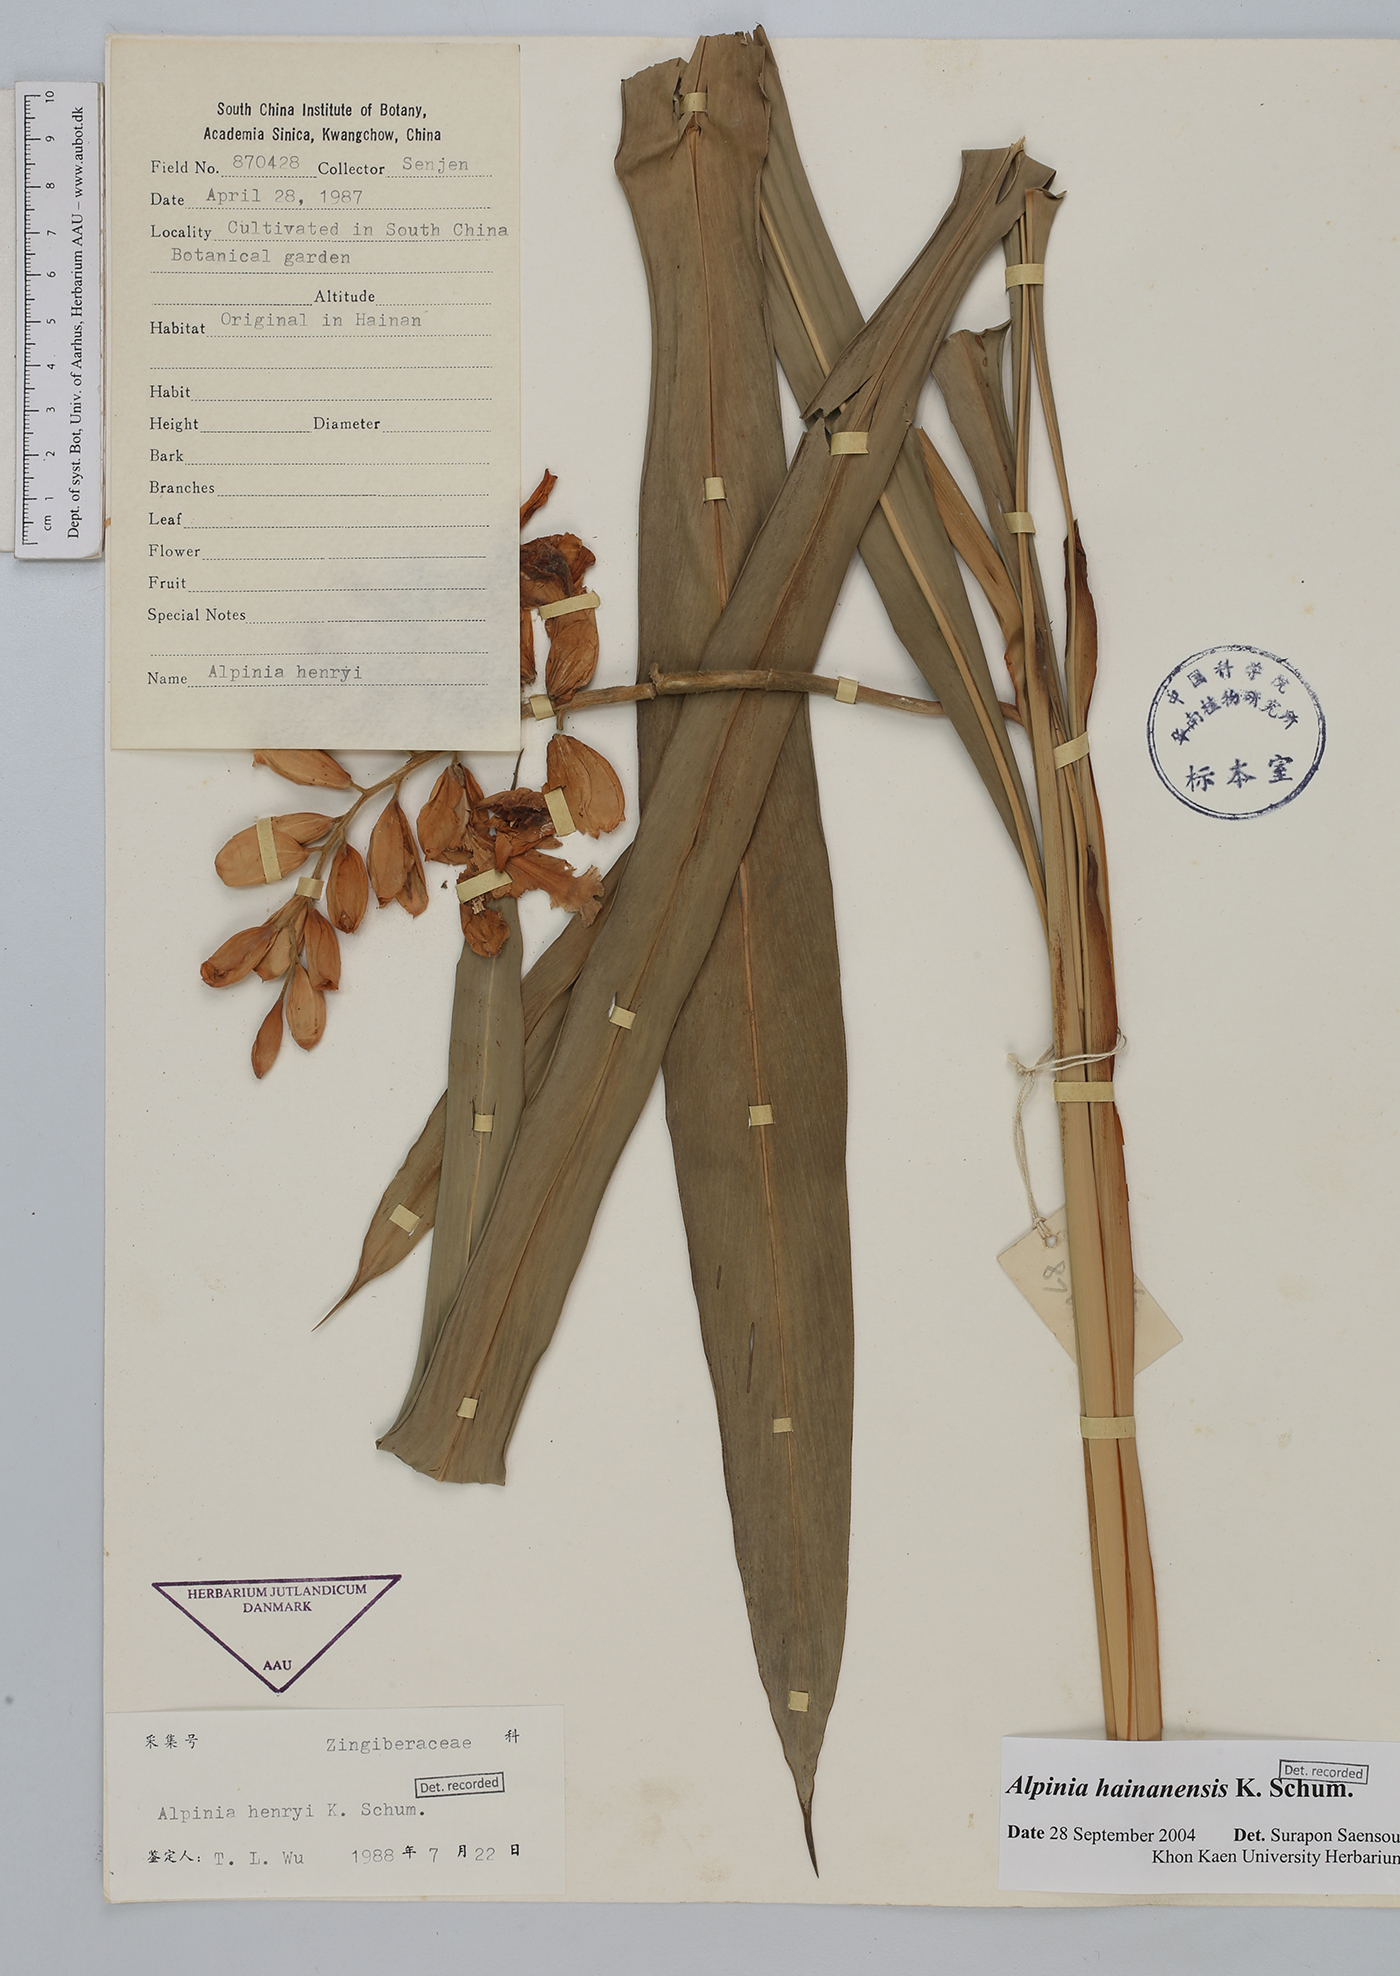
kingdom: Plantae
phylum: Tracheophyta
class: Liliopsida
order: Zingiberales
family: Zingiberaceae
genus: Alpinia
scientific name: Alpinia hainanensis
